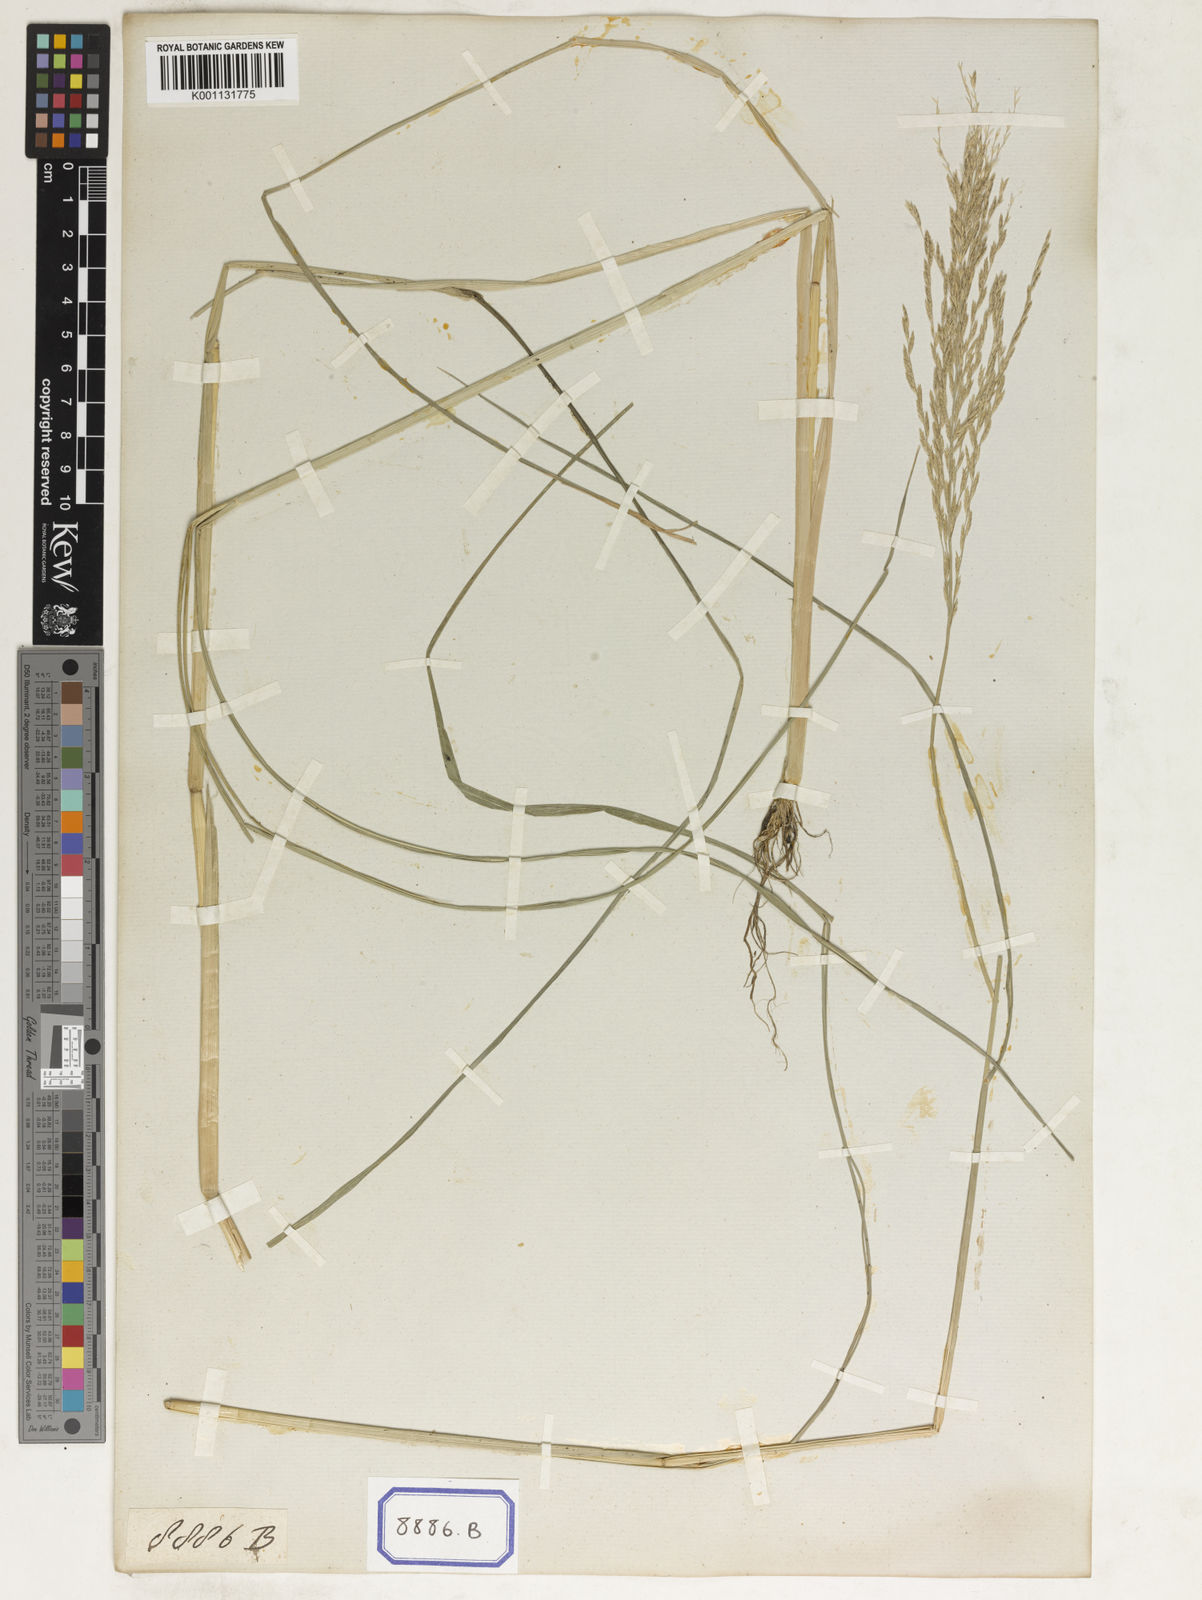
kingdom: Plantae
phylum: Tracheophyta
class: Liliopsida
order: Poales
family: Poaceae
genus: Diplachne
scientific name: Diplachne fusca
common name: Brown beetle grass
